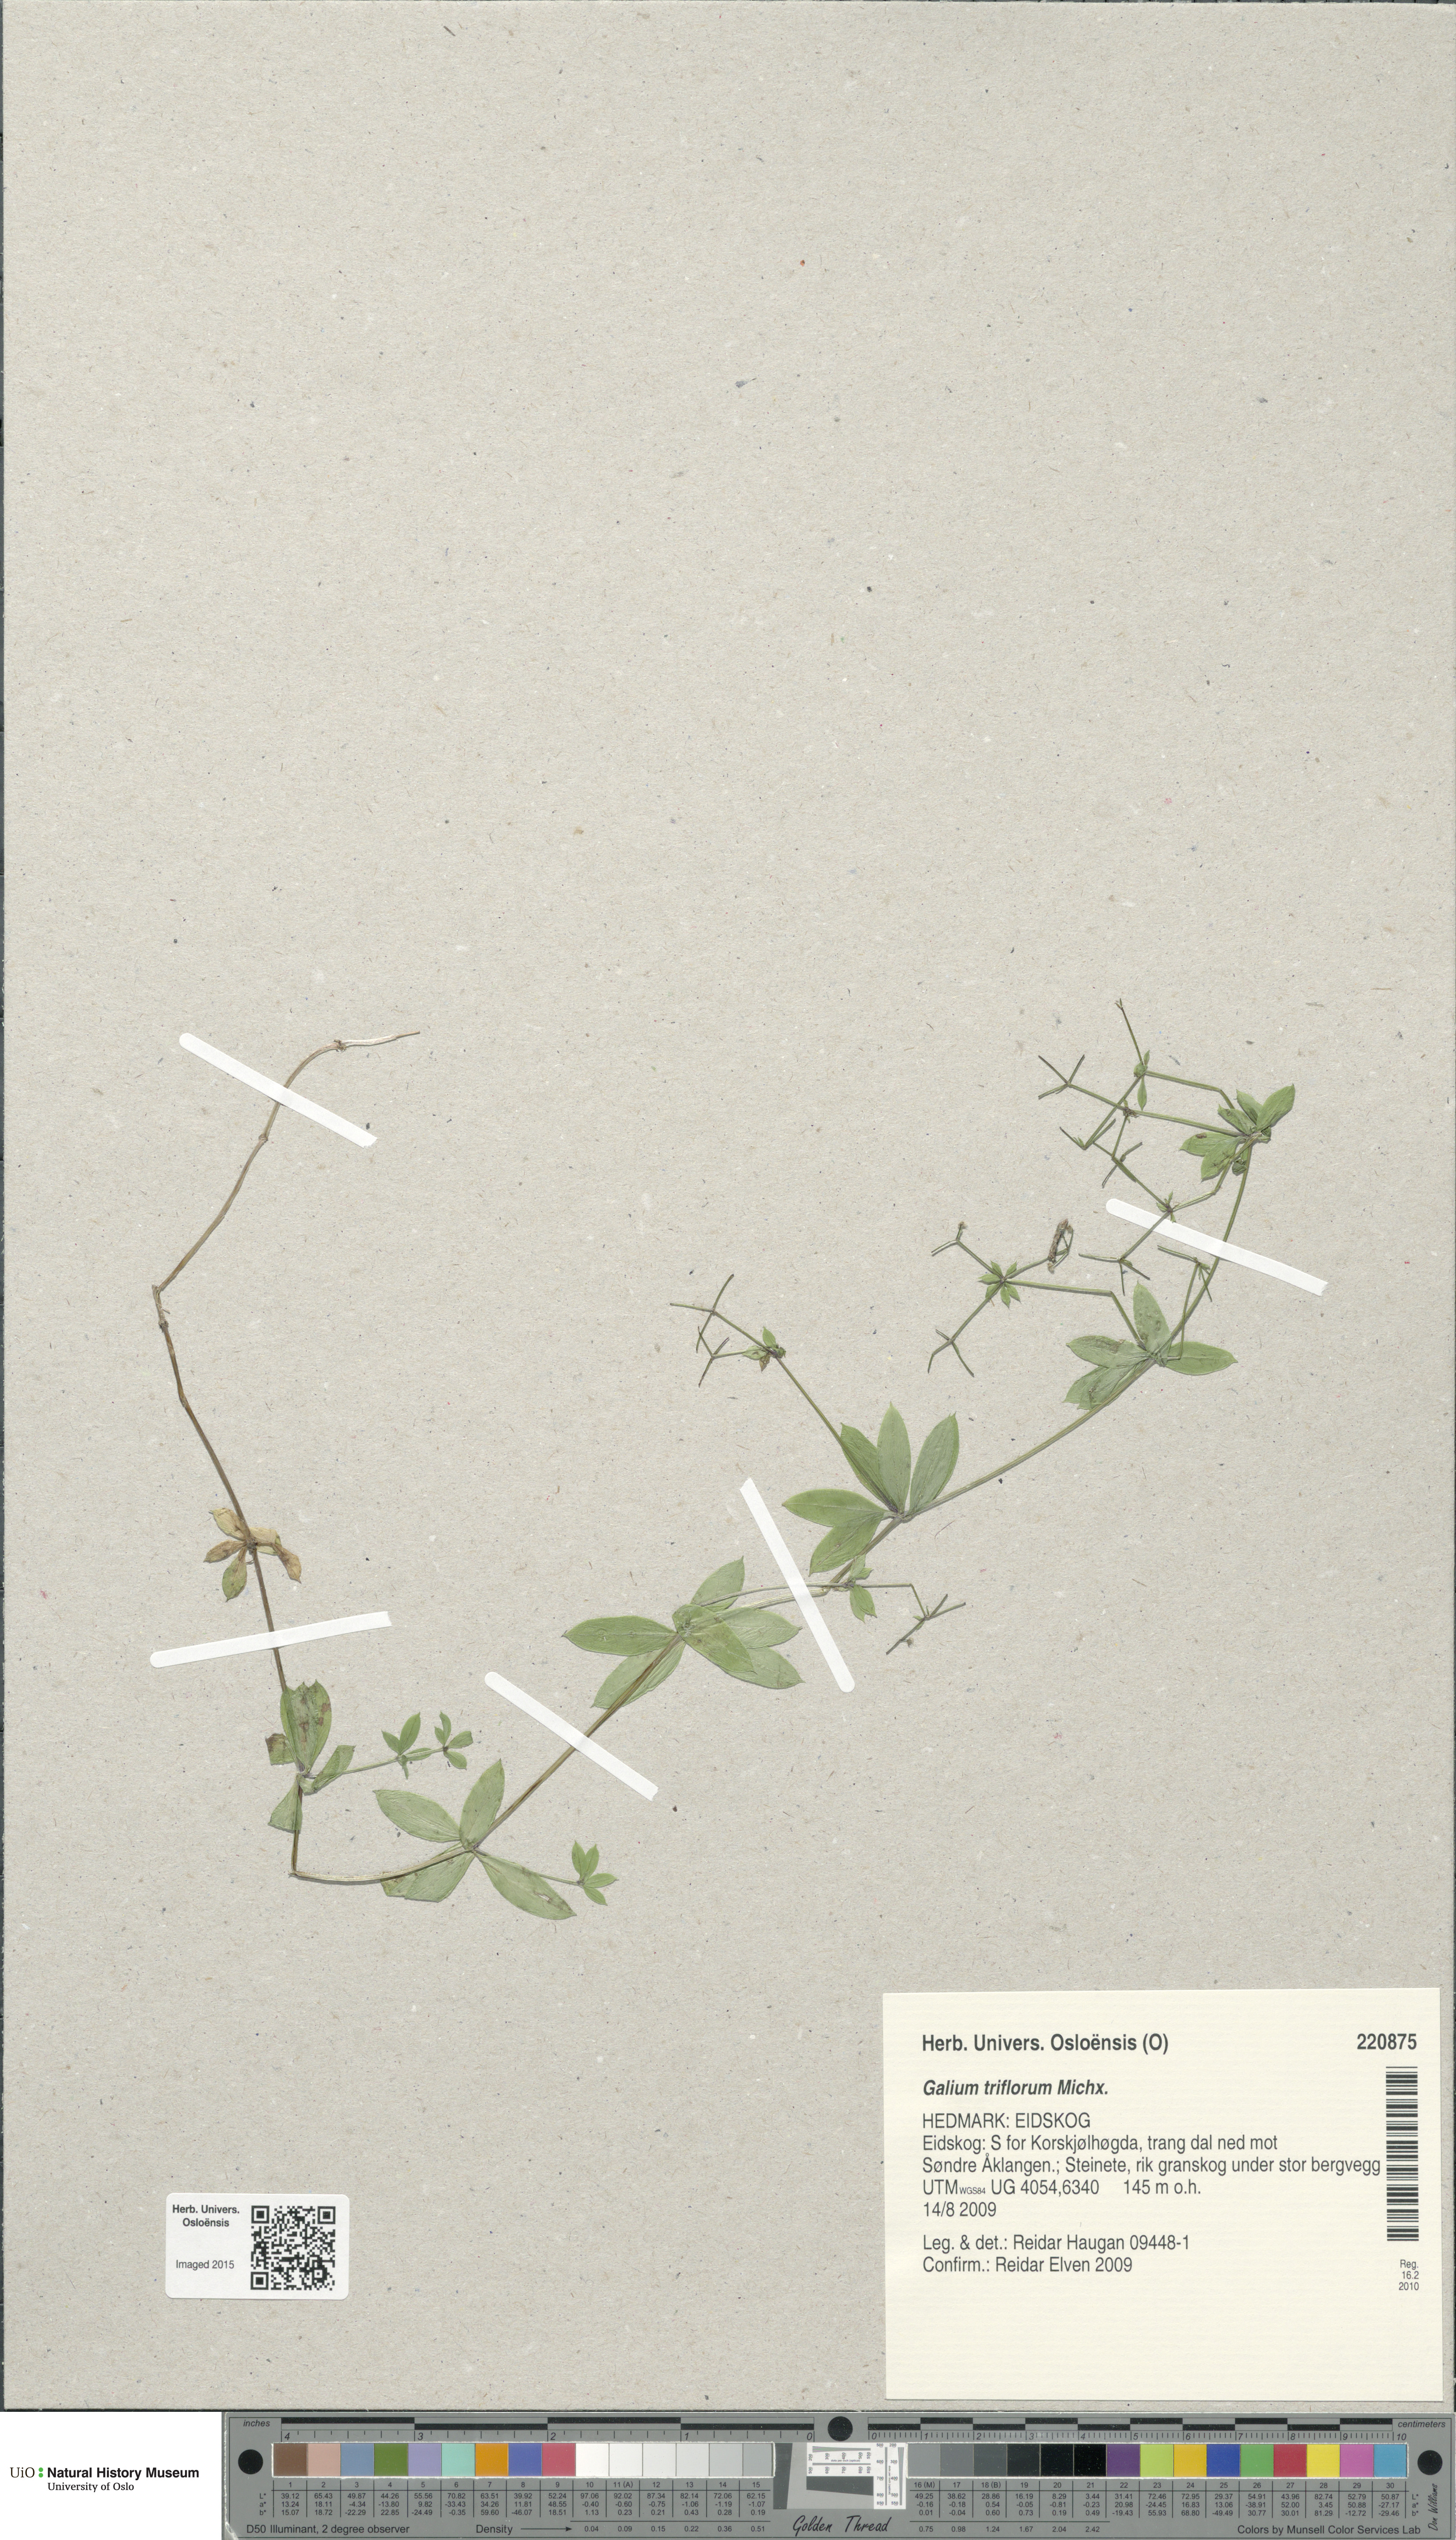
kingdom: Plantae
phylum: Tracheophyta
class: Magnoliopsida
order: Gentianales
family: Rubiaceae
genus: Galium
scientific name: Galium triflorum
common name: Fragrant bedstraw
